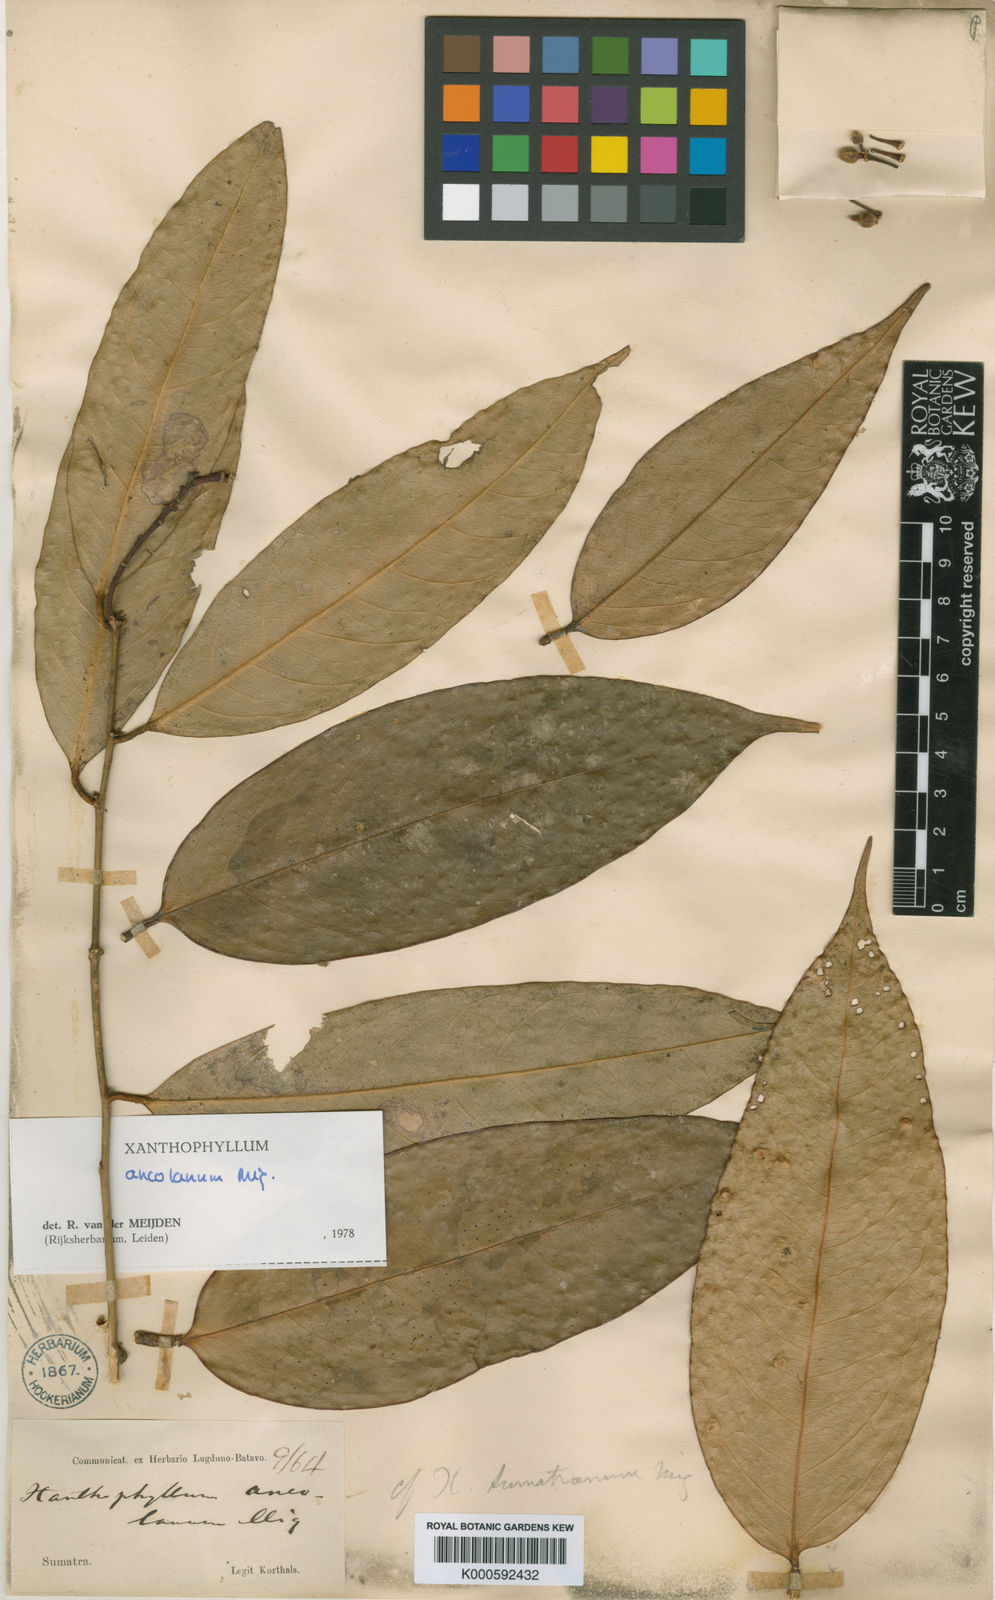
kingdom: Plantae
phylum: Tracheophyta
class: Magnoliopsida
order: Fabales
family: Polygalaceae
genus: Xanthophyllum
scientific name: Xanthophyllum ancolanum
